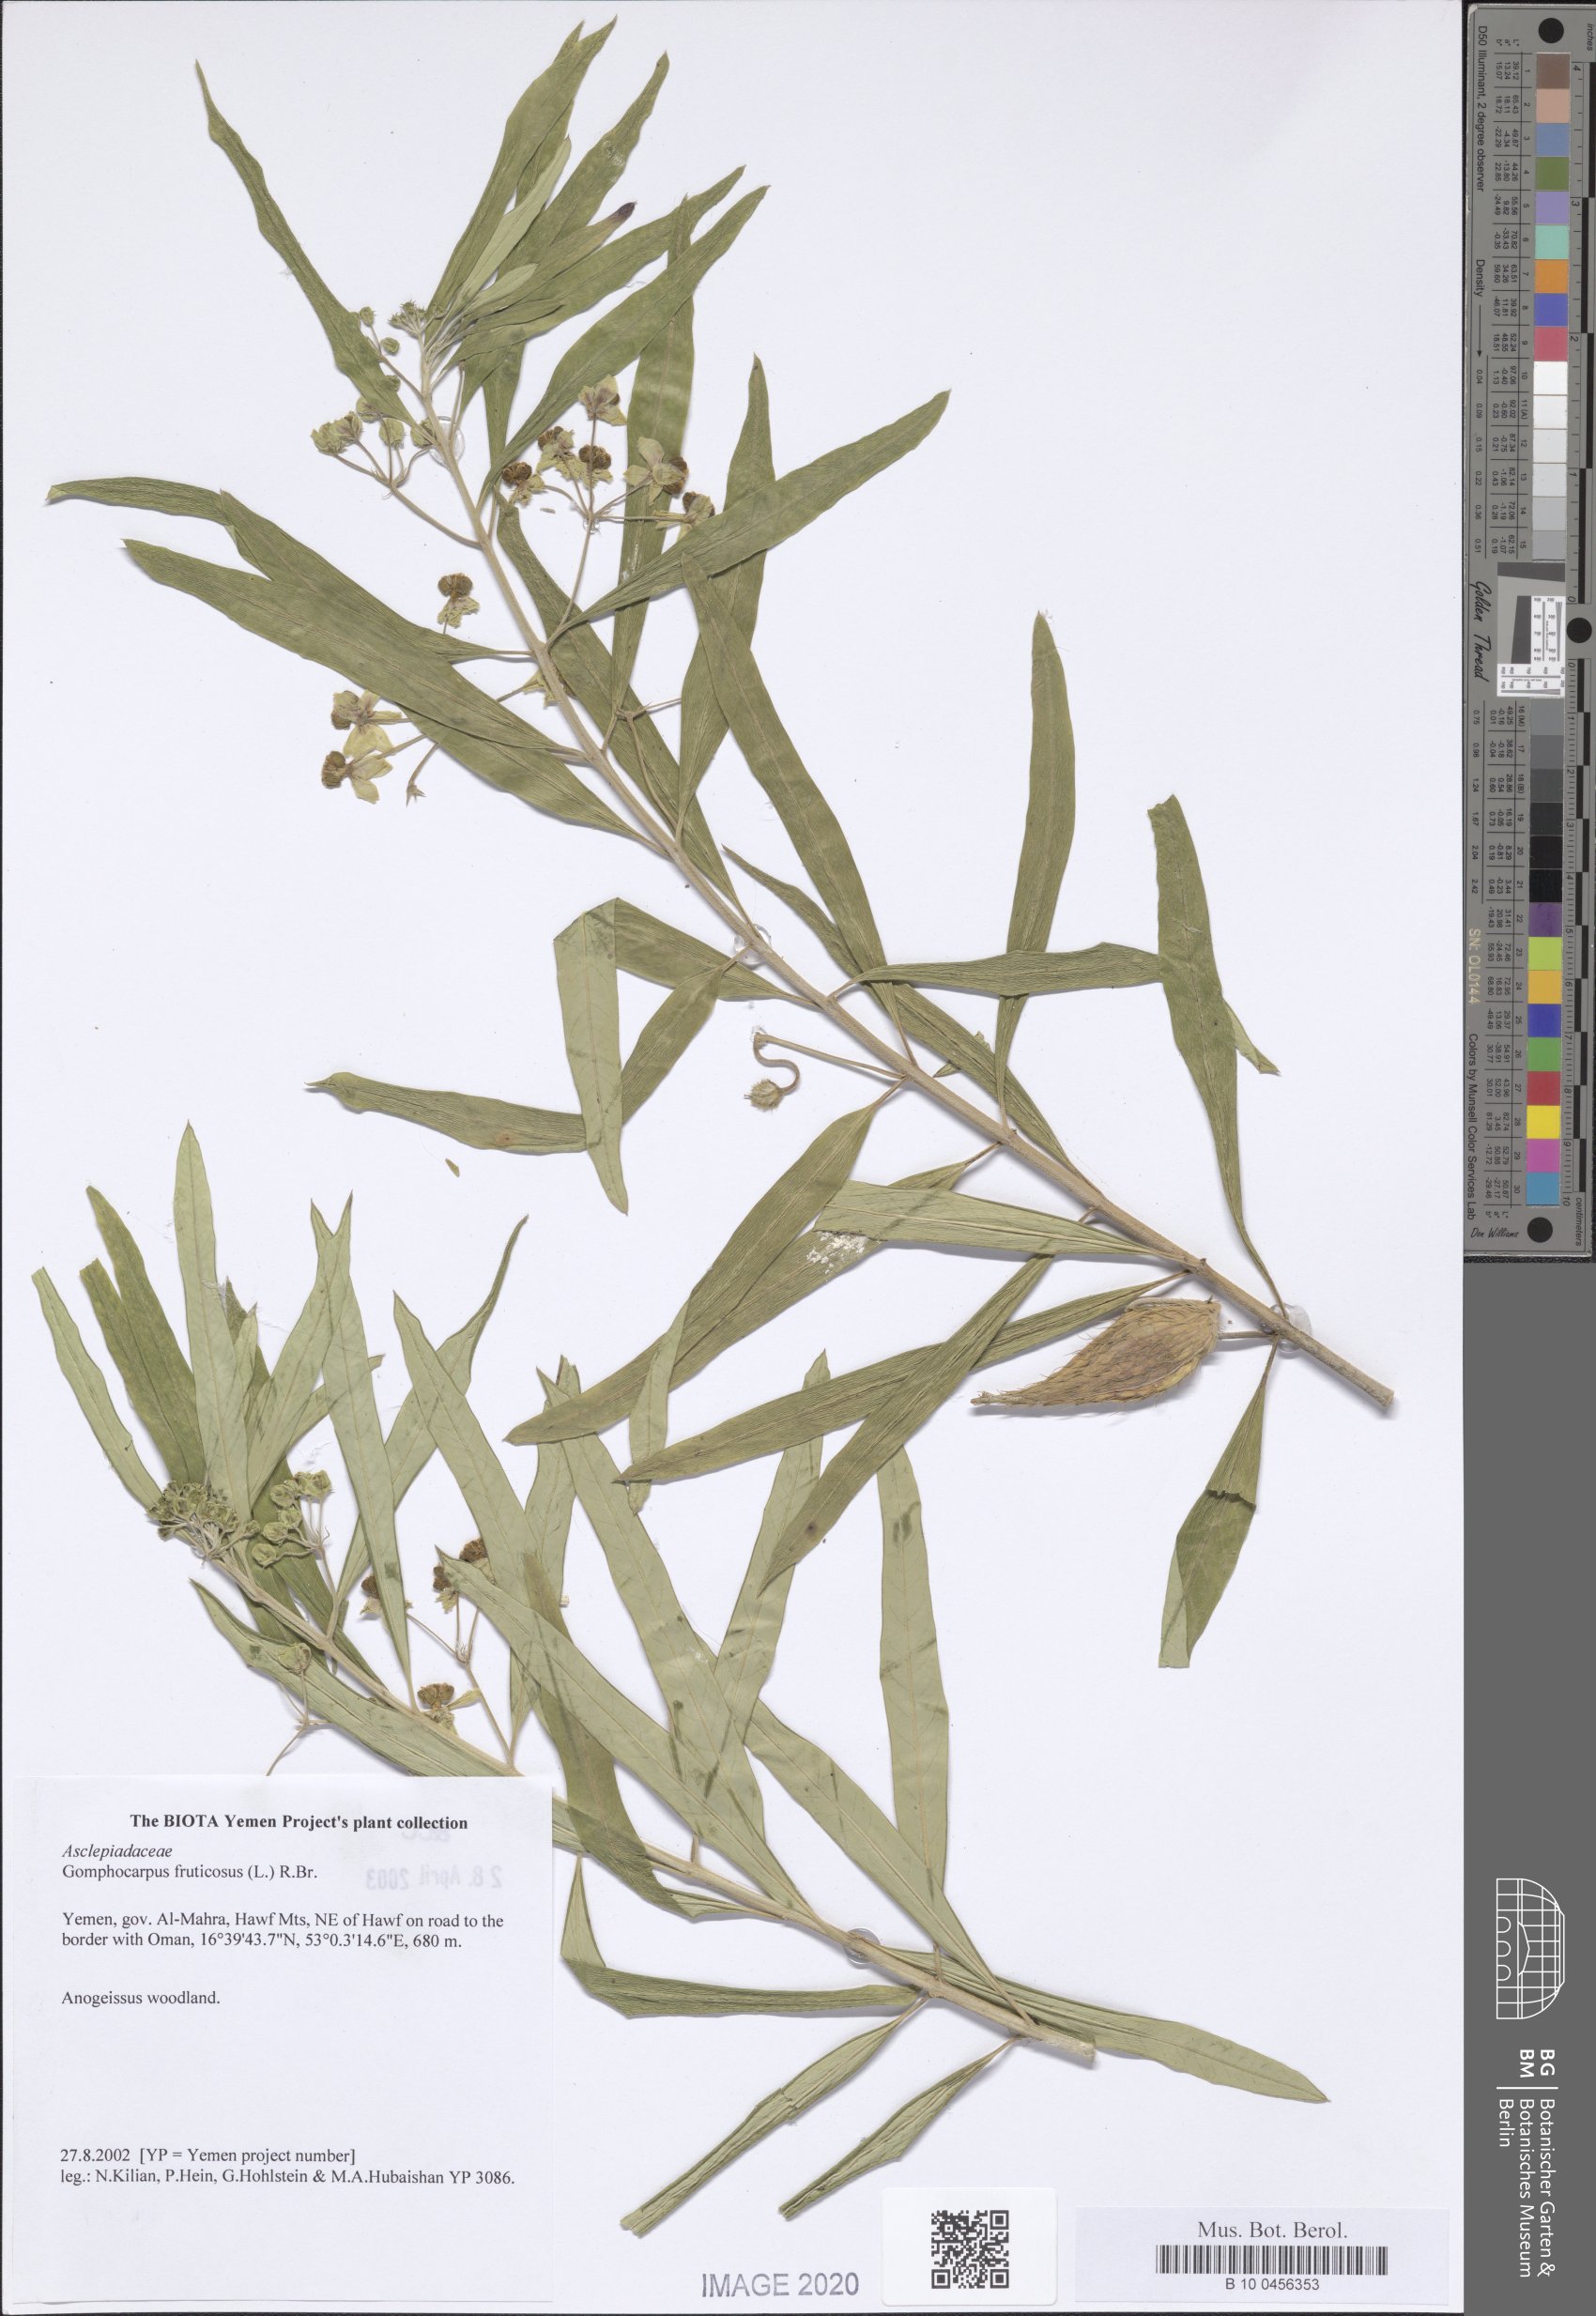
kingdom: Plantae
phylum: Tracheophyta
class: Magnoliopsida
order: Gentianales
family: Apocynaceae
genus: Gomphocarpus
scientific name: Gomphocarpus physocarpus
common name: Balloon cotton bush
